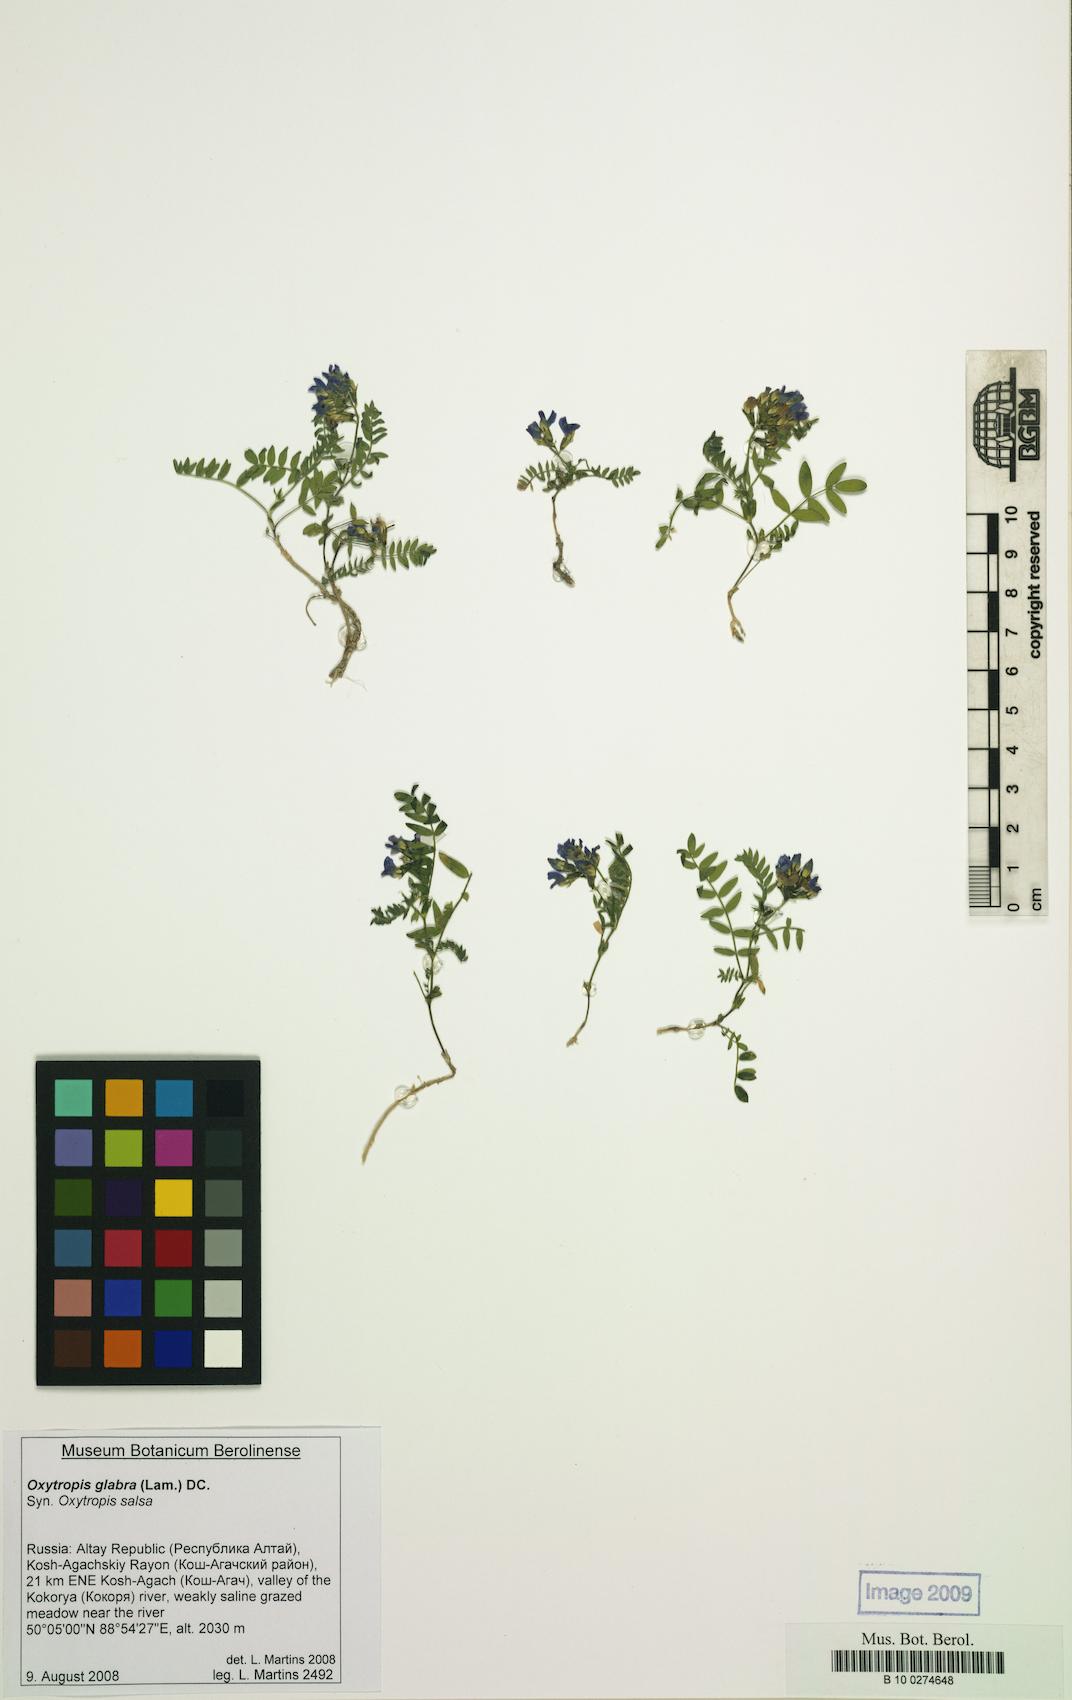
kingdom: Plantae
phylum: Tracheophyta
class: Magnoliopsida
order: Fabales
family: Fabaceae
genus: Oxytropis
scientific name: Oxytropis glabra
